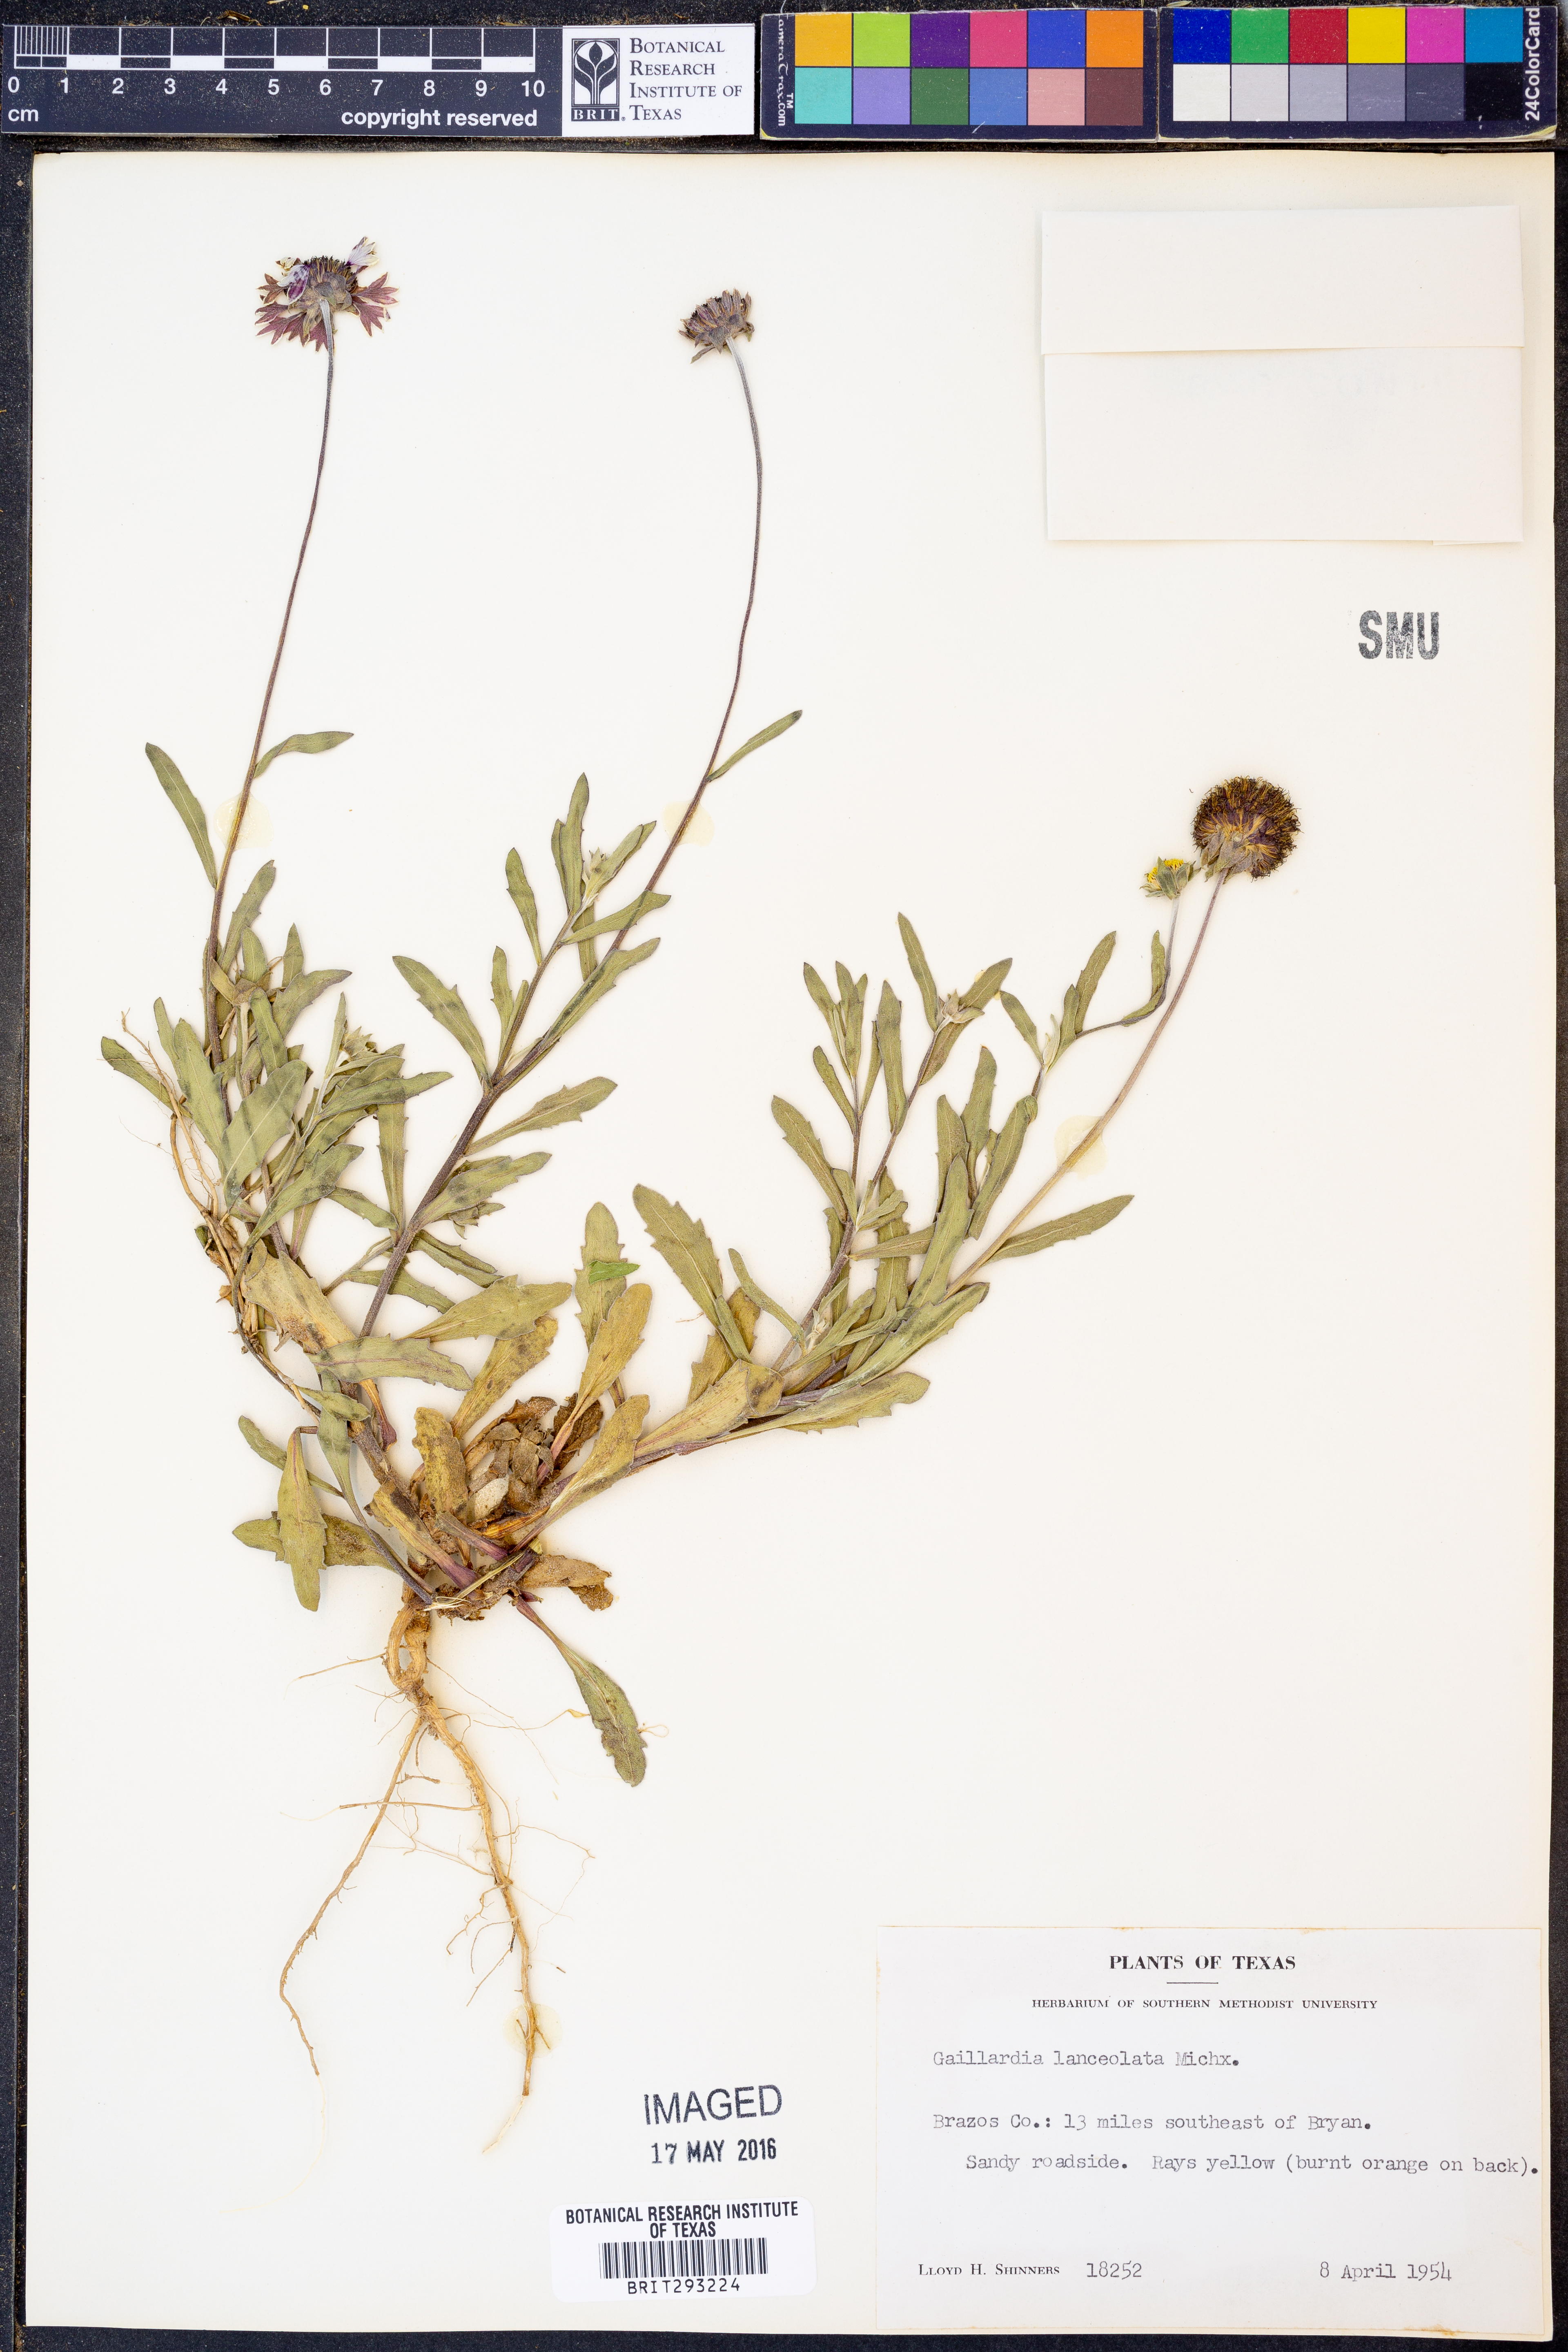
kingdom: Plantae
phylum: Tracheophyta
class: Magnoliopsida
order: Asterales
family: Asteraceae
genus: Gaillardia
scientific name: Gaillardia aestivalis
